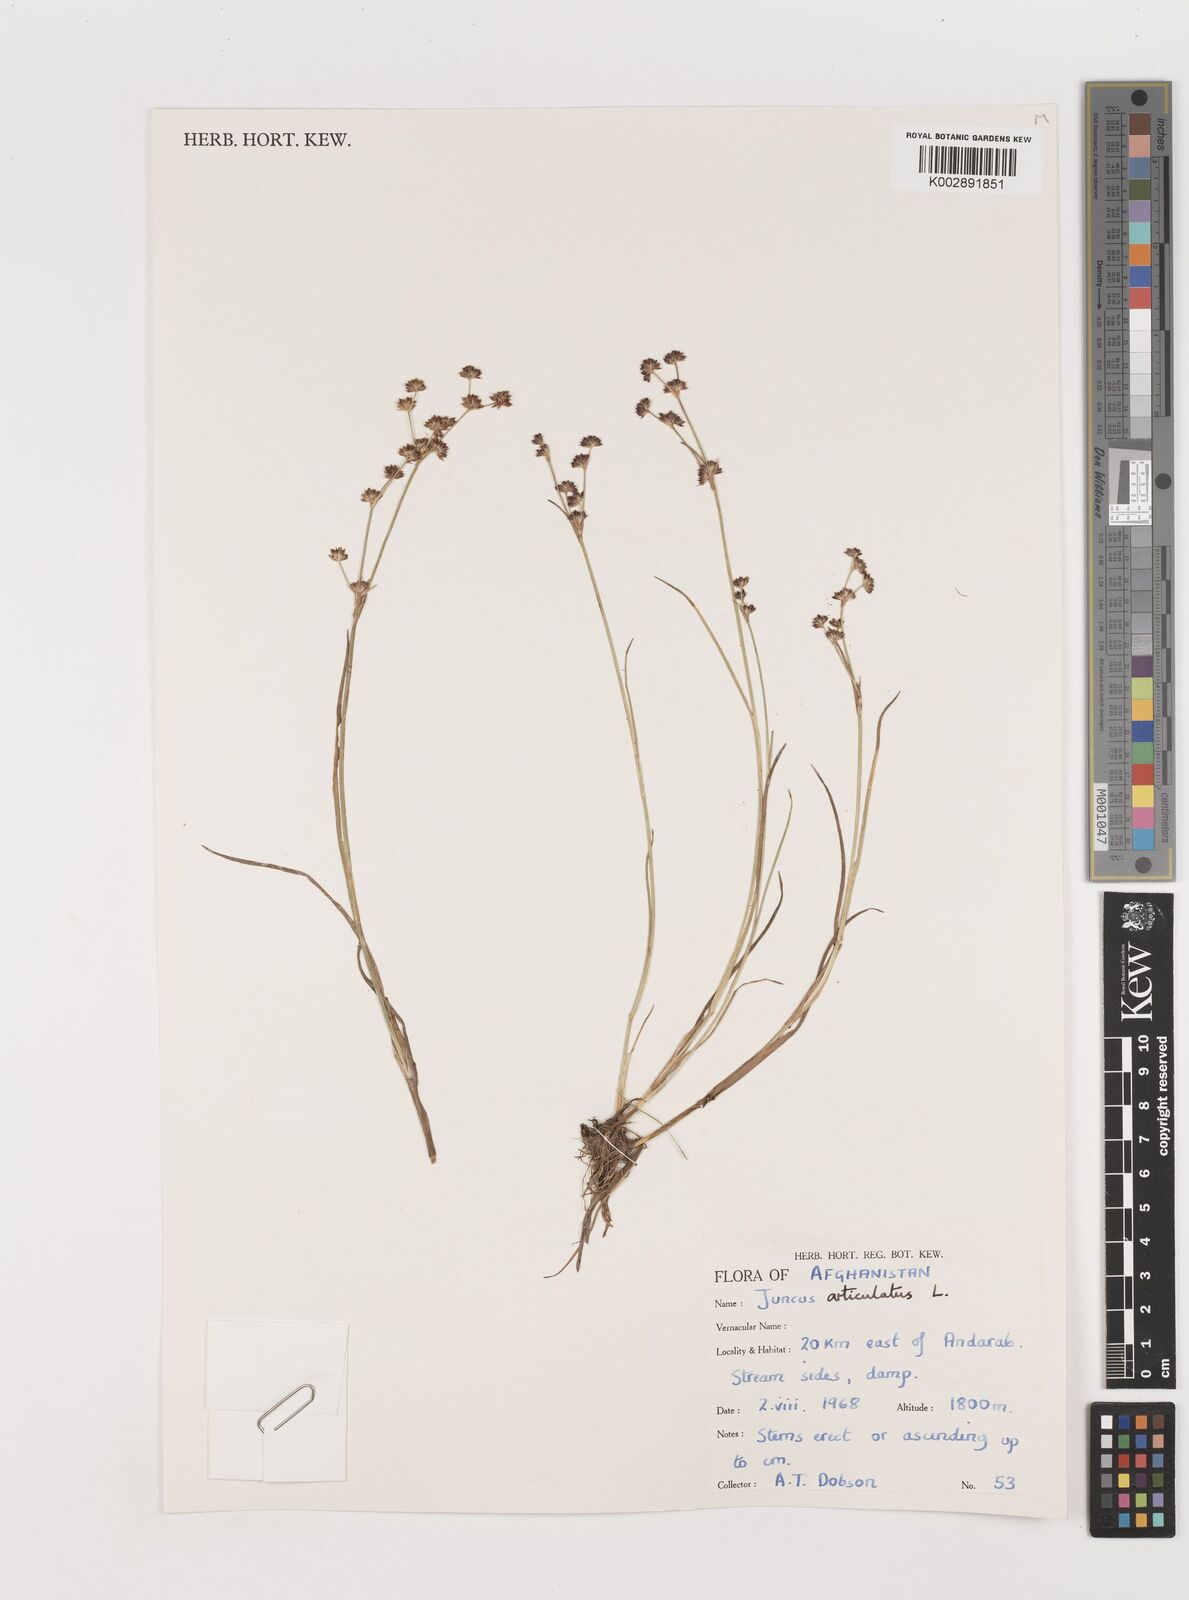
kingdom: Plantae
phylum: Tracheophyta
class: Liliopsida
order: Poales
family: Juncaceae
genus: Juncus
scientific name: Juncus articulatus
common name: Jointed rush
